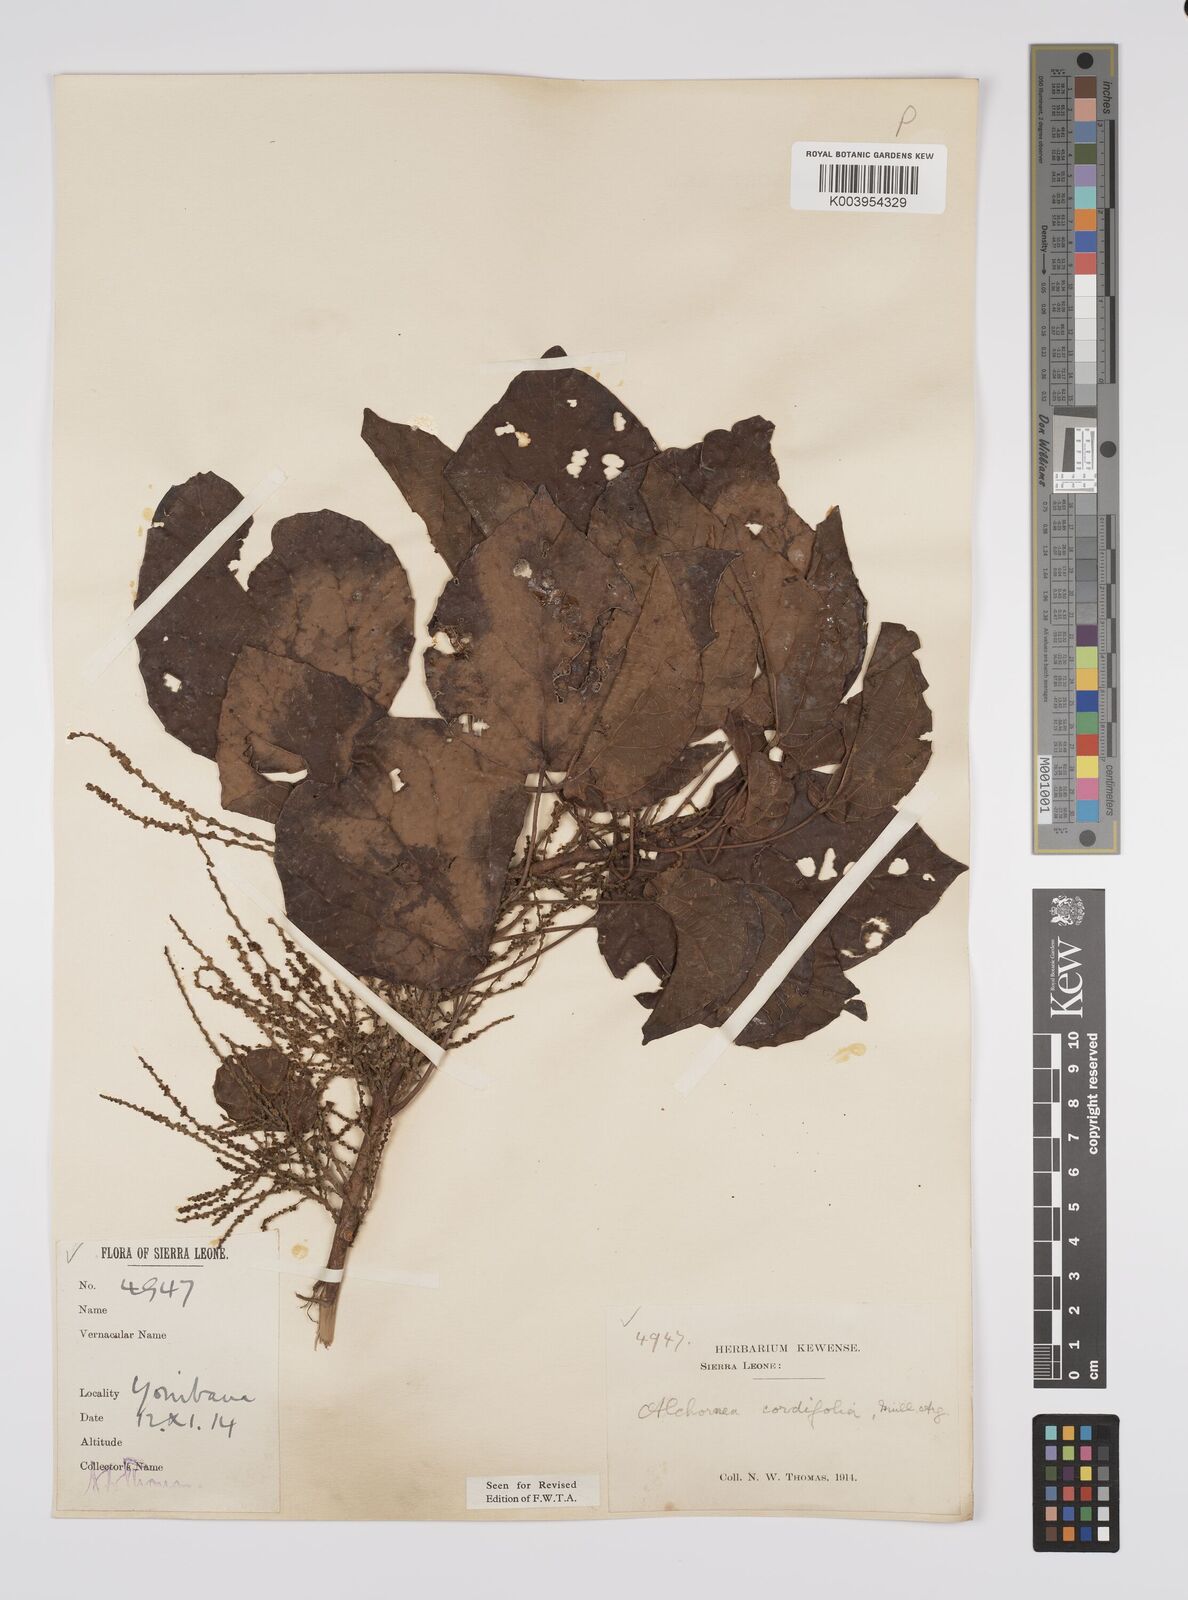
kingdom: Plantae
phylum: Tracheophyta
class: Magnoliopsida
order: Malpighiales
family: Euphorbiaceae
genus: Alchornea
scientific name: Alchornea cordifolia
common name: Christmasbush
